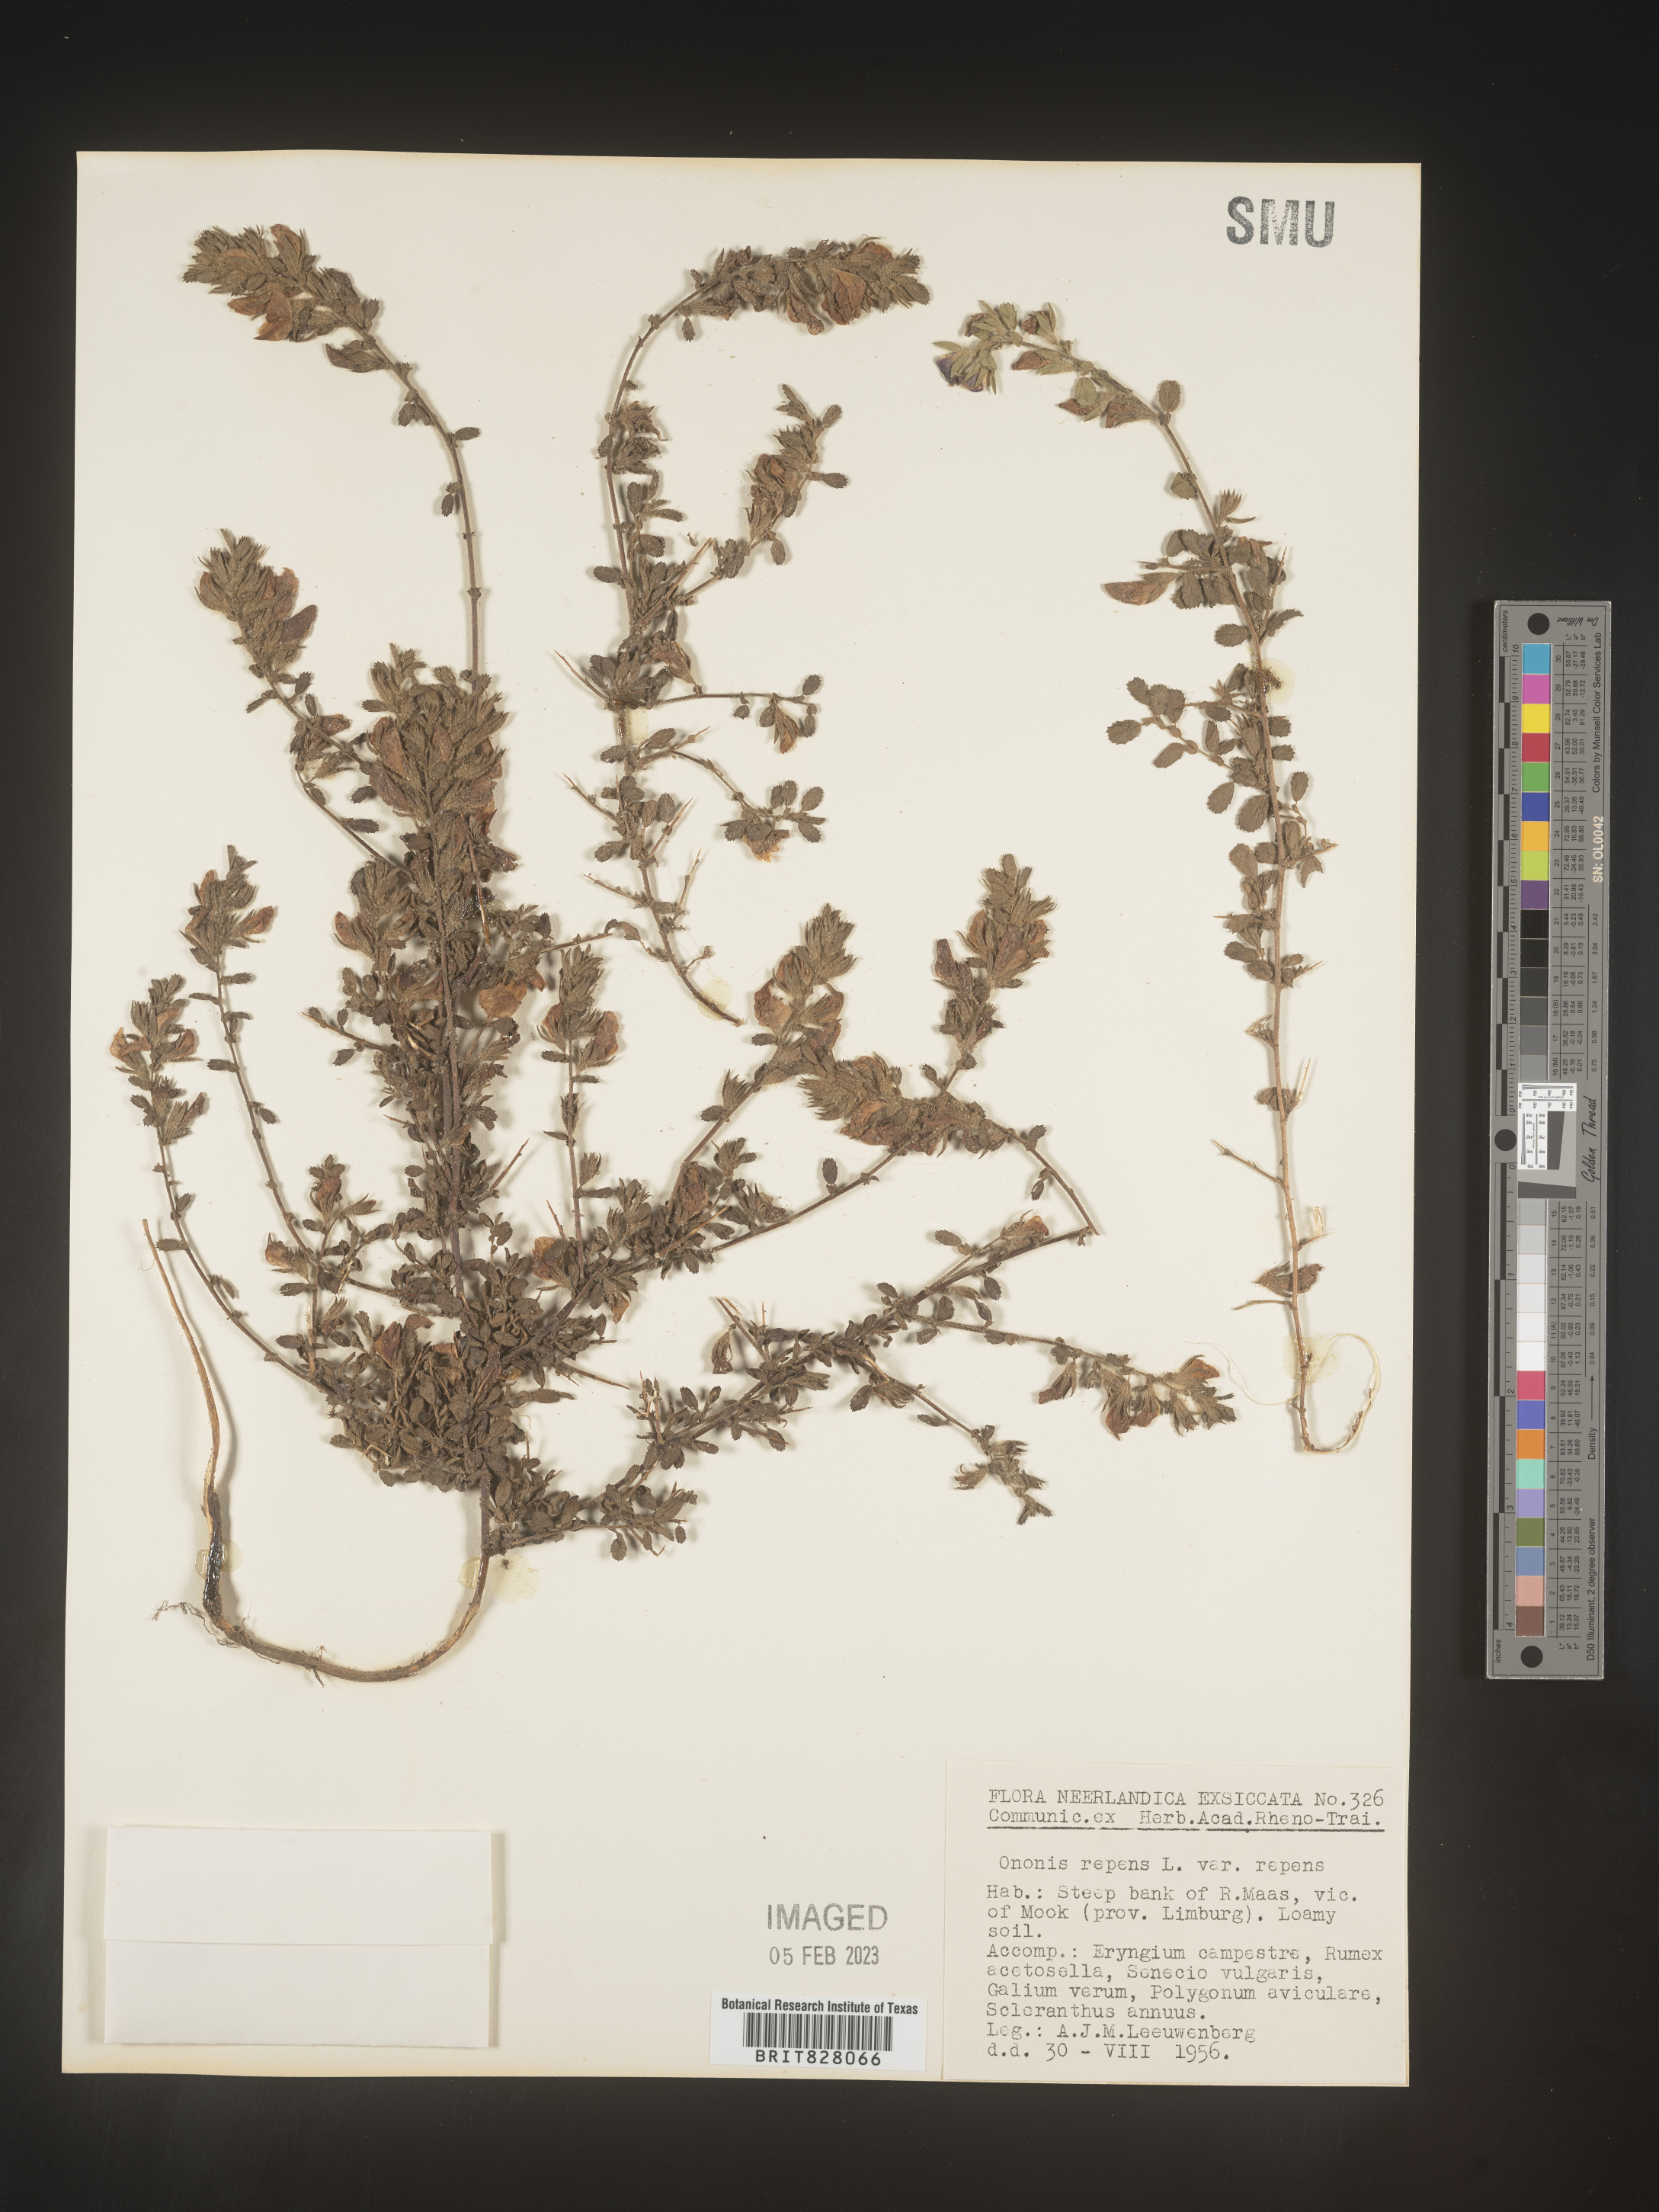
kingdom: Plantae
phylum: Tracheophyta
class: Magnoliopsida
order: Fabales
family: Fabaceae
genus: Ononis
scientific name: Ononis
